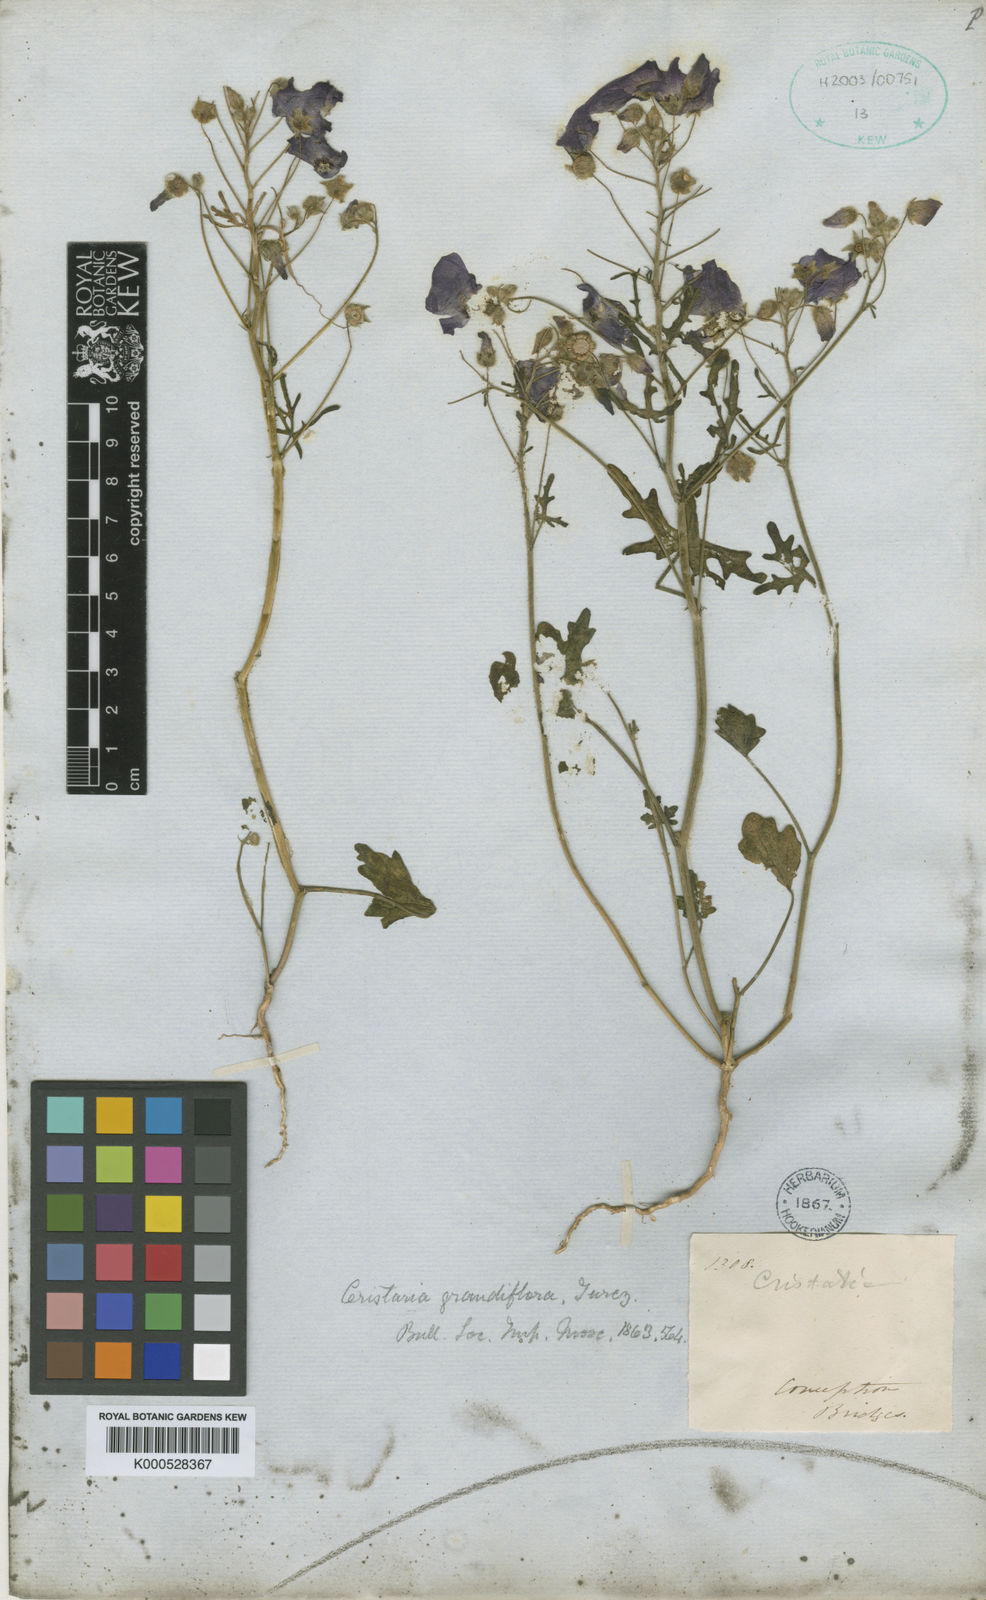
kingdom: Plantae
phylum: Tracheophyta
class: Magnoliopsida
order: Malvales
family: Malvaceae
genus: Cristaria
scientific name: Cristaria molinae
